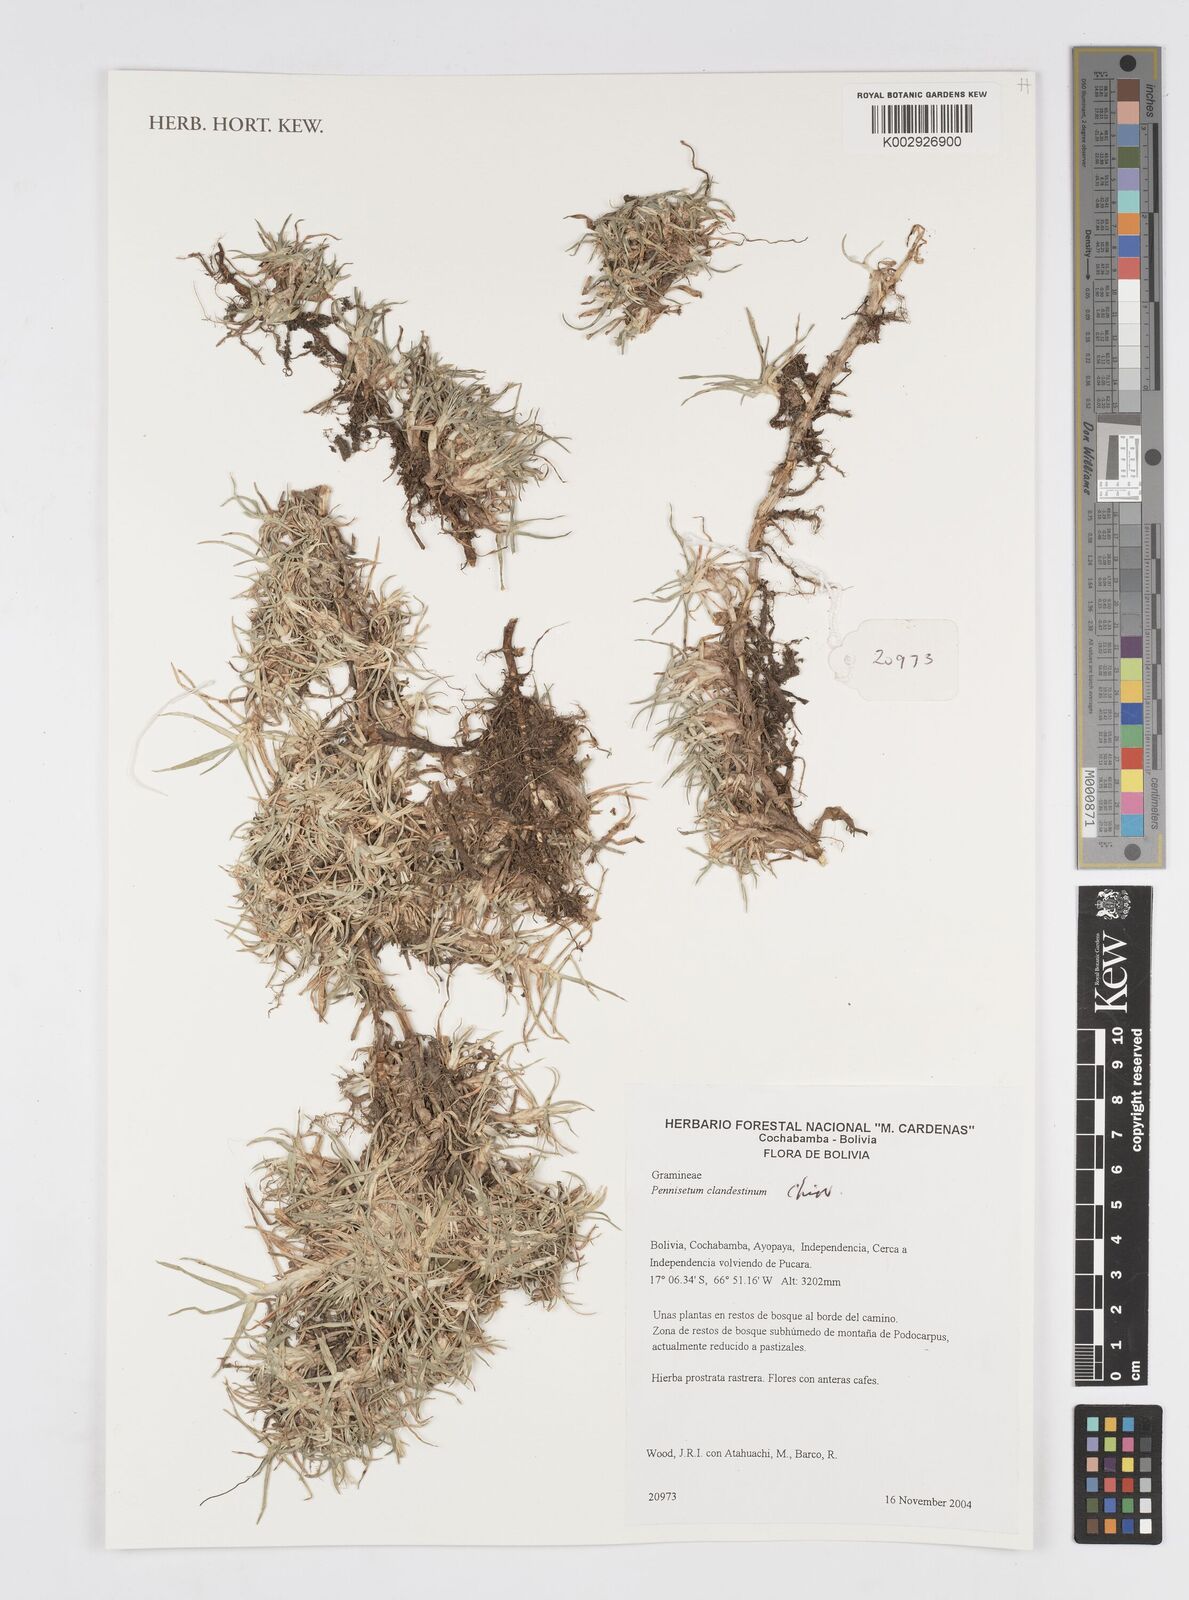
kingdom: Plantae
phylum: Tracheophyta
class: Liliopsida
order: Poales
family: Poaceae
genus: Cenchrus
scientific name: Cenchrus clandestinus
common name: Kikuyugrass
